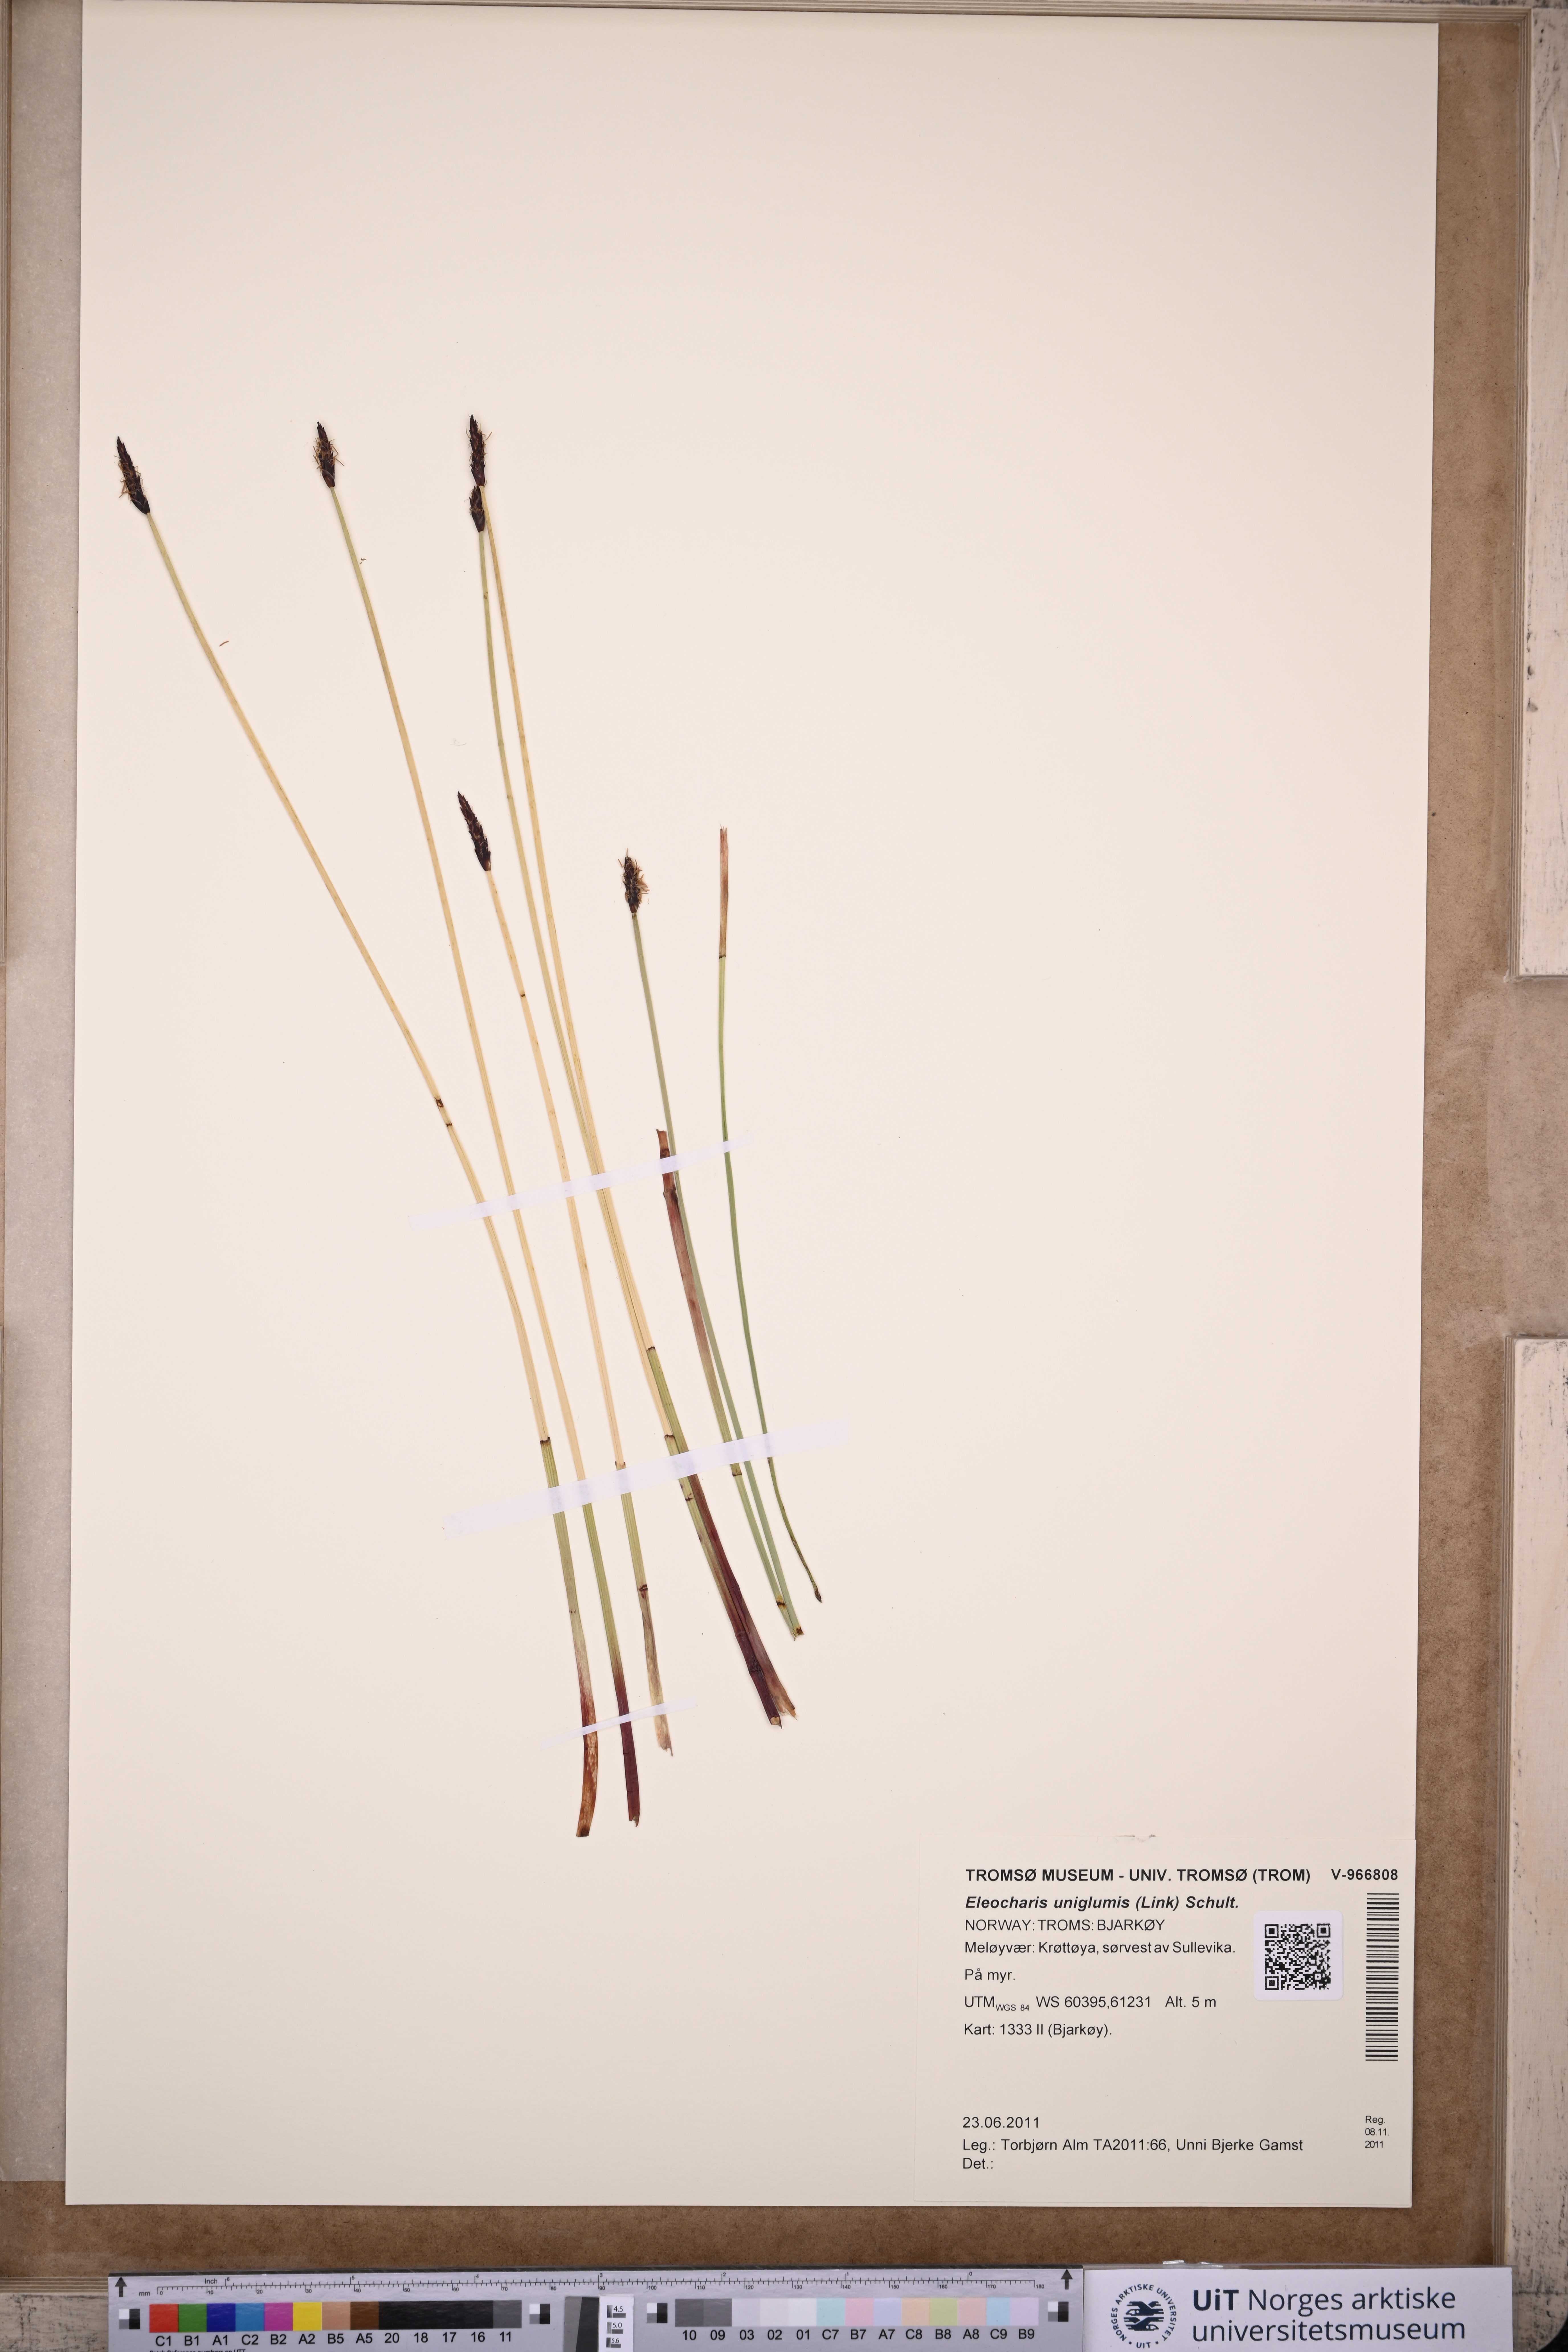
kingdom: Plantae
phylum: Tracheophyta
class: Liliopsida
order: Poales
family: Cyperaceae
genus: Eleocharis
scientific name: Eleocharis uniglumis
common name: Slender spike-rush
